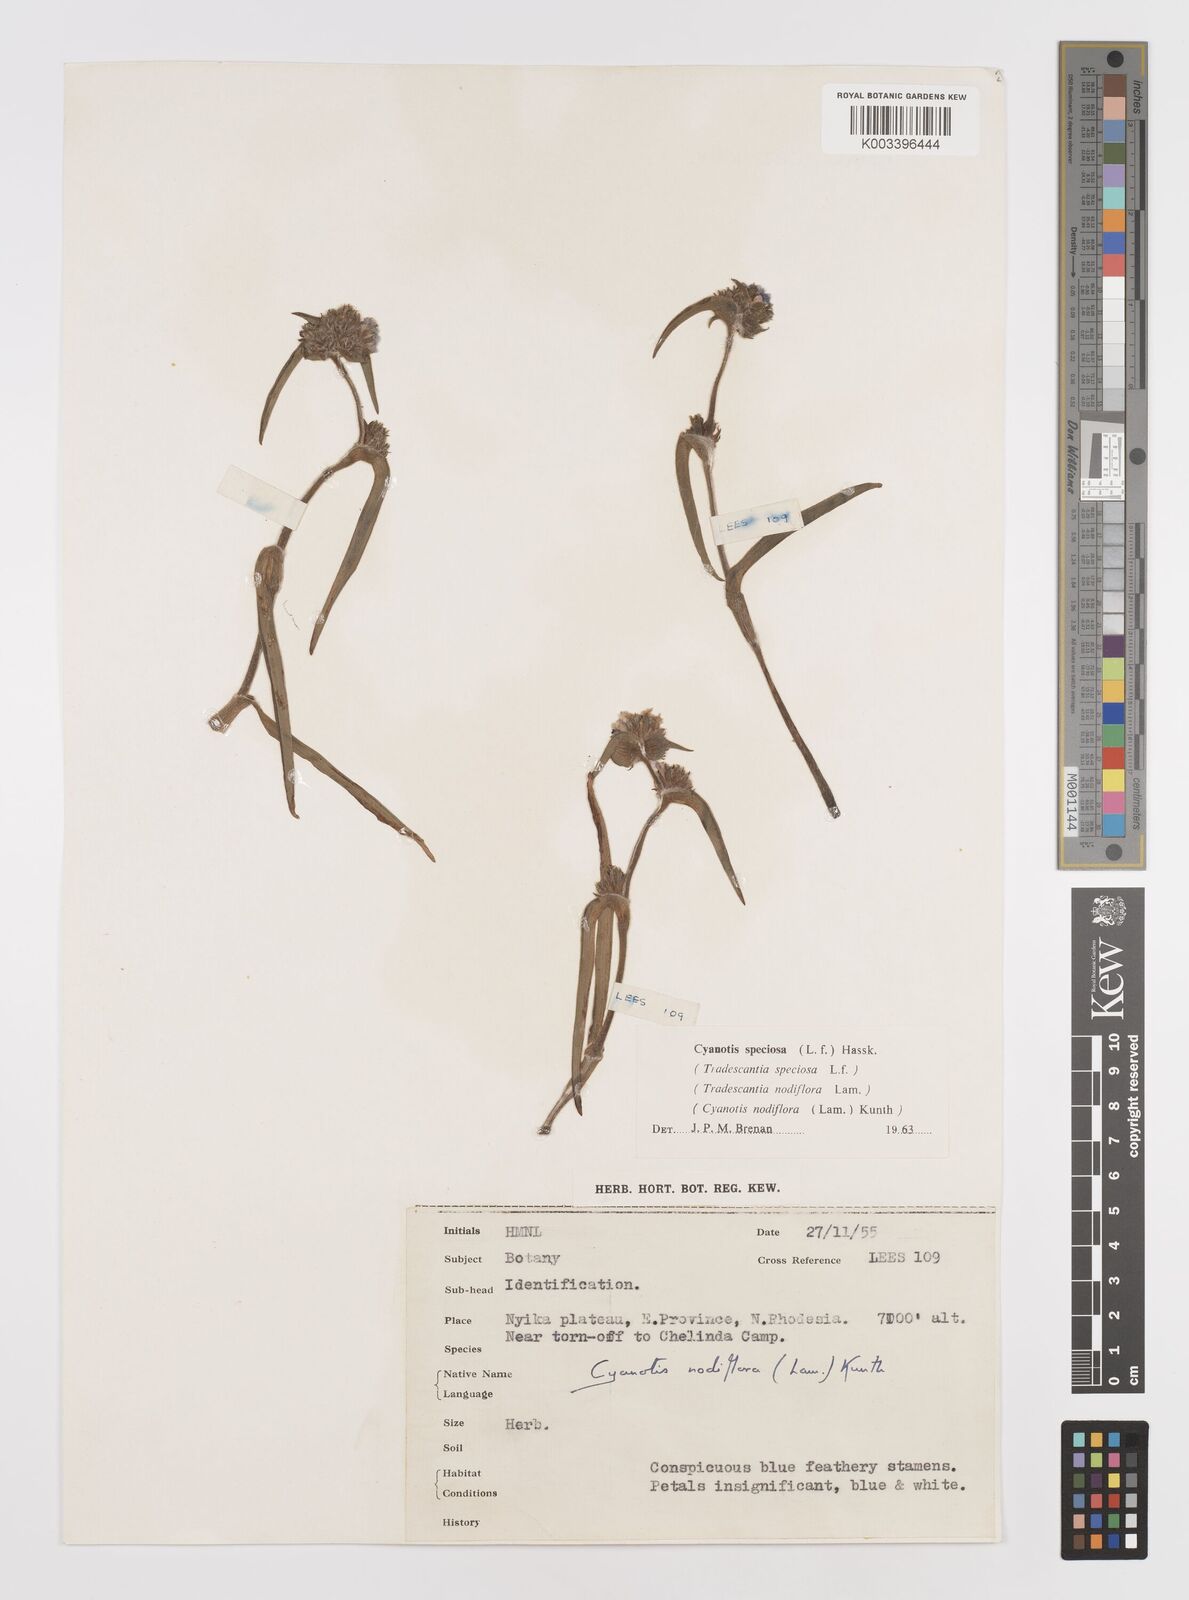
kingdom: Plantae
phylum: Tracheophyta
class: Liliopsida
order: Commelinales
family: Commelinaceae
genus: Cyanotis
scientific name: Cyanotis speciosa
